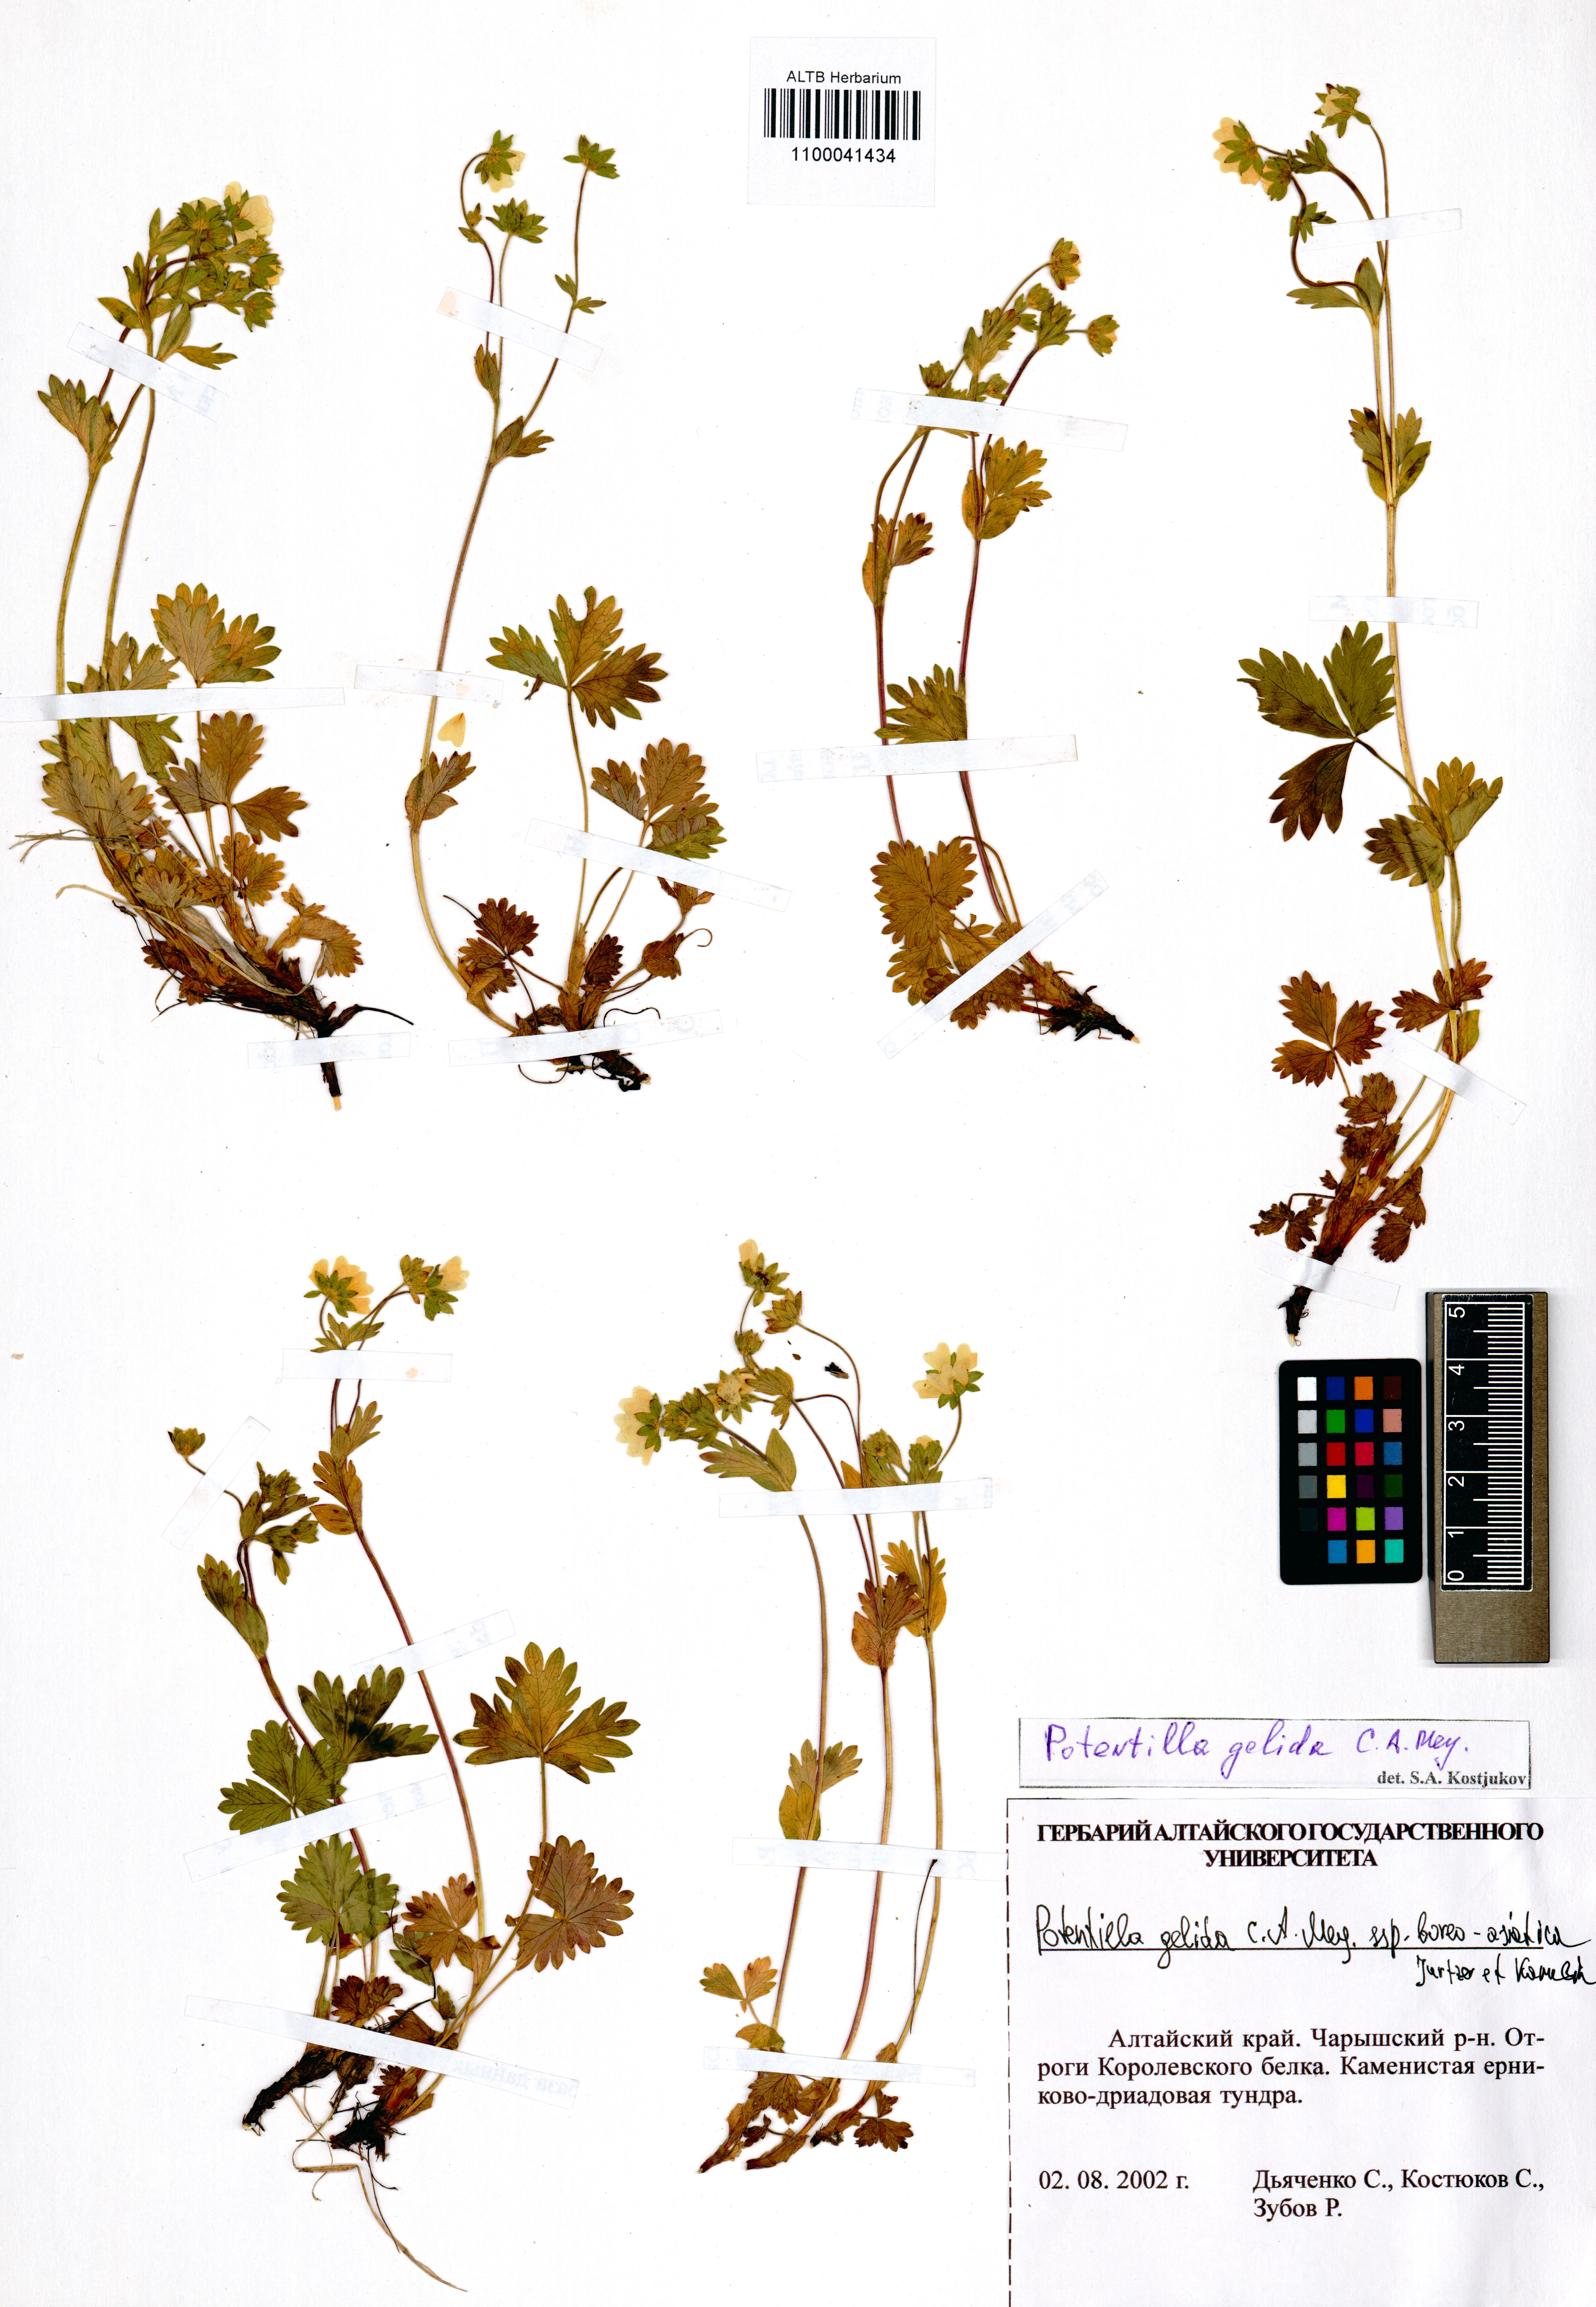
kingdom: Plantae
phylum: Tracheophyta
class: Magnoliopsida
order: Rosales
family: Rosaceae
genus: Potentilla
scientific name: Potentilla crantzii
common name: Alpine cinquefoil
